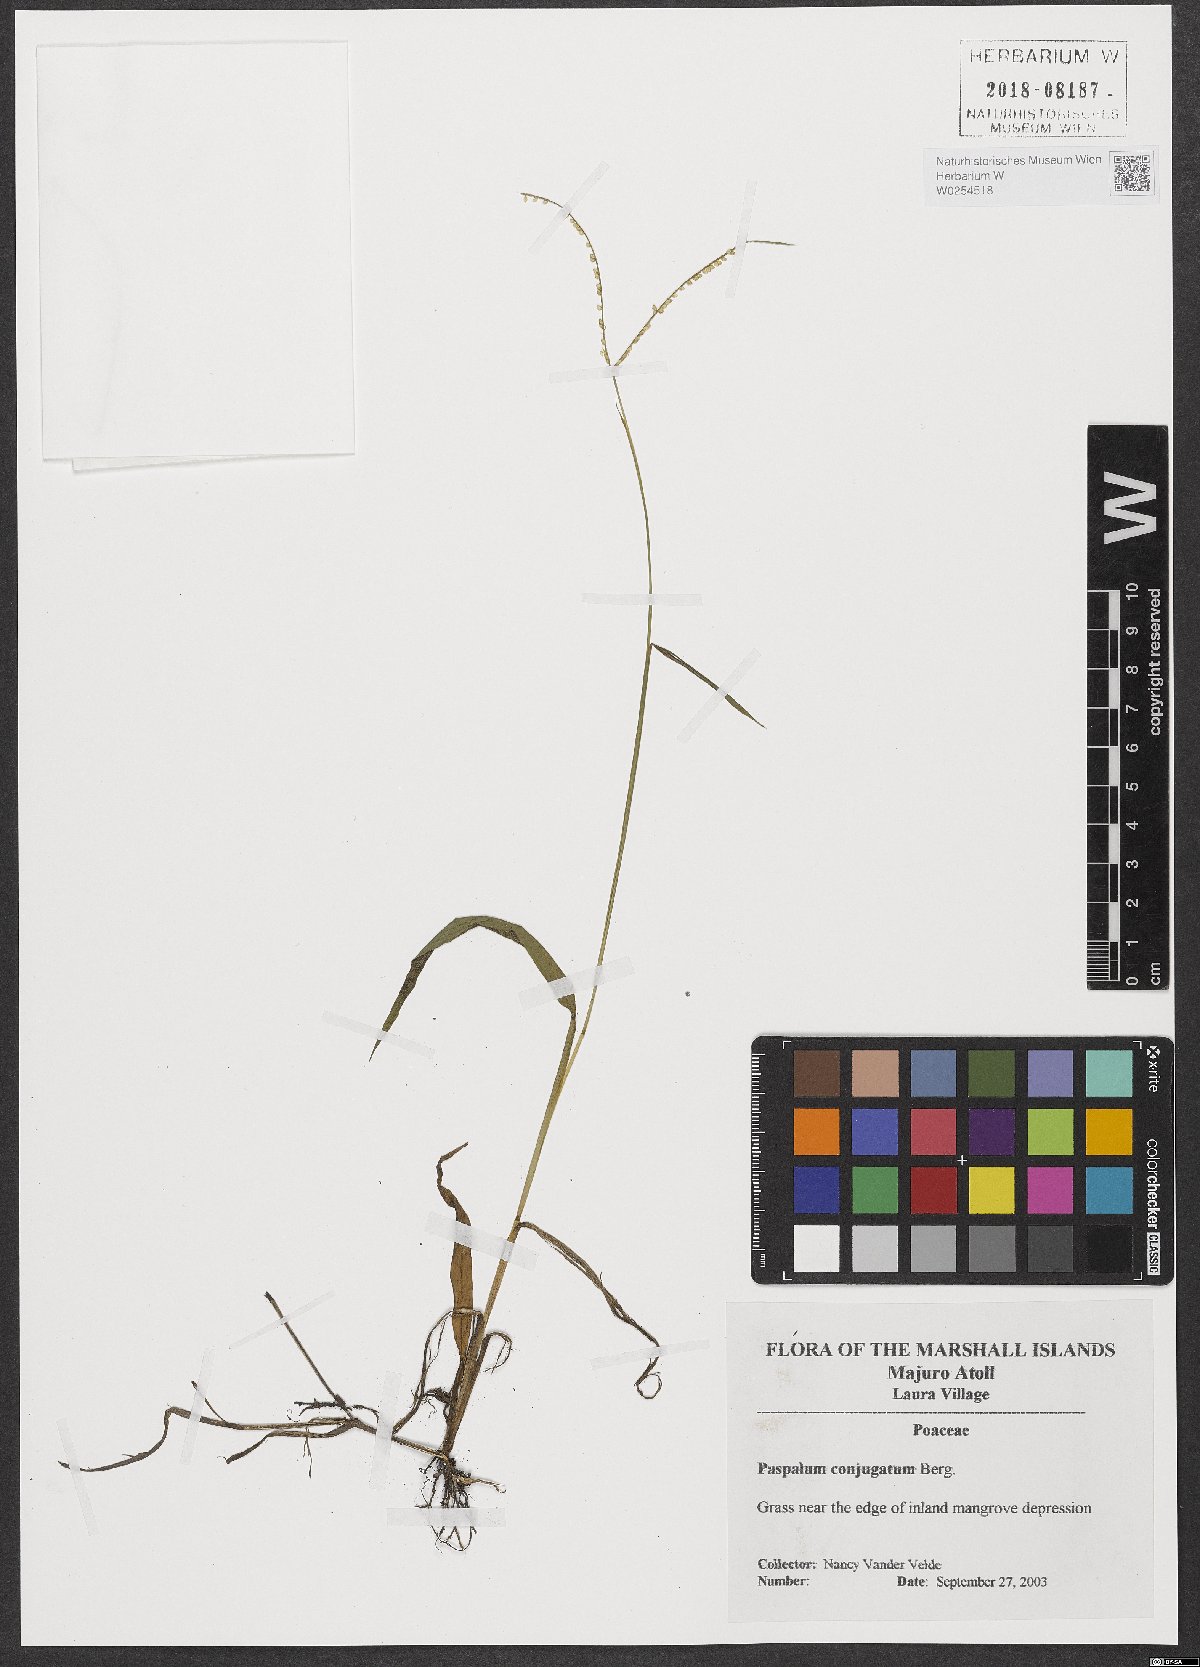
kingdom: Plantae
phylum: Tracheophyta
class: Liliopsida
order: Poales
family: Poaceae
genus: Paspalum
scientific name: Paspalum conjugatum
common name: Hilograss
